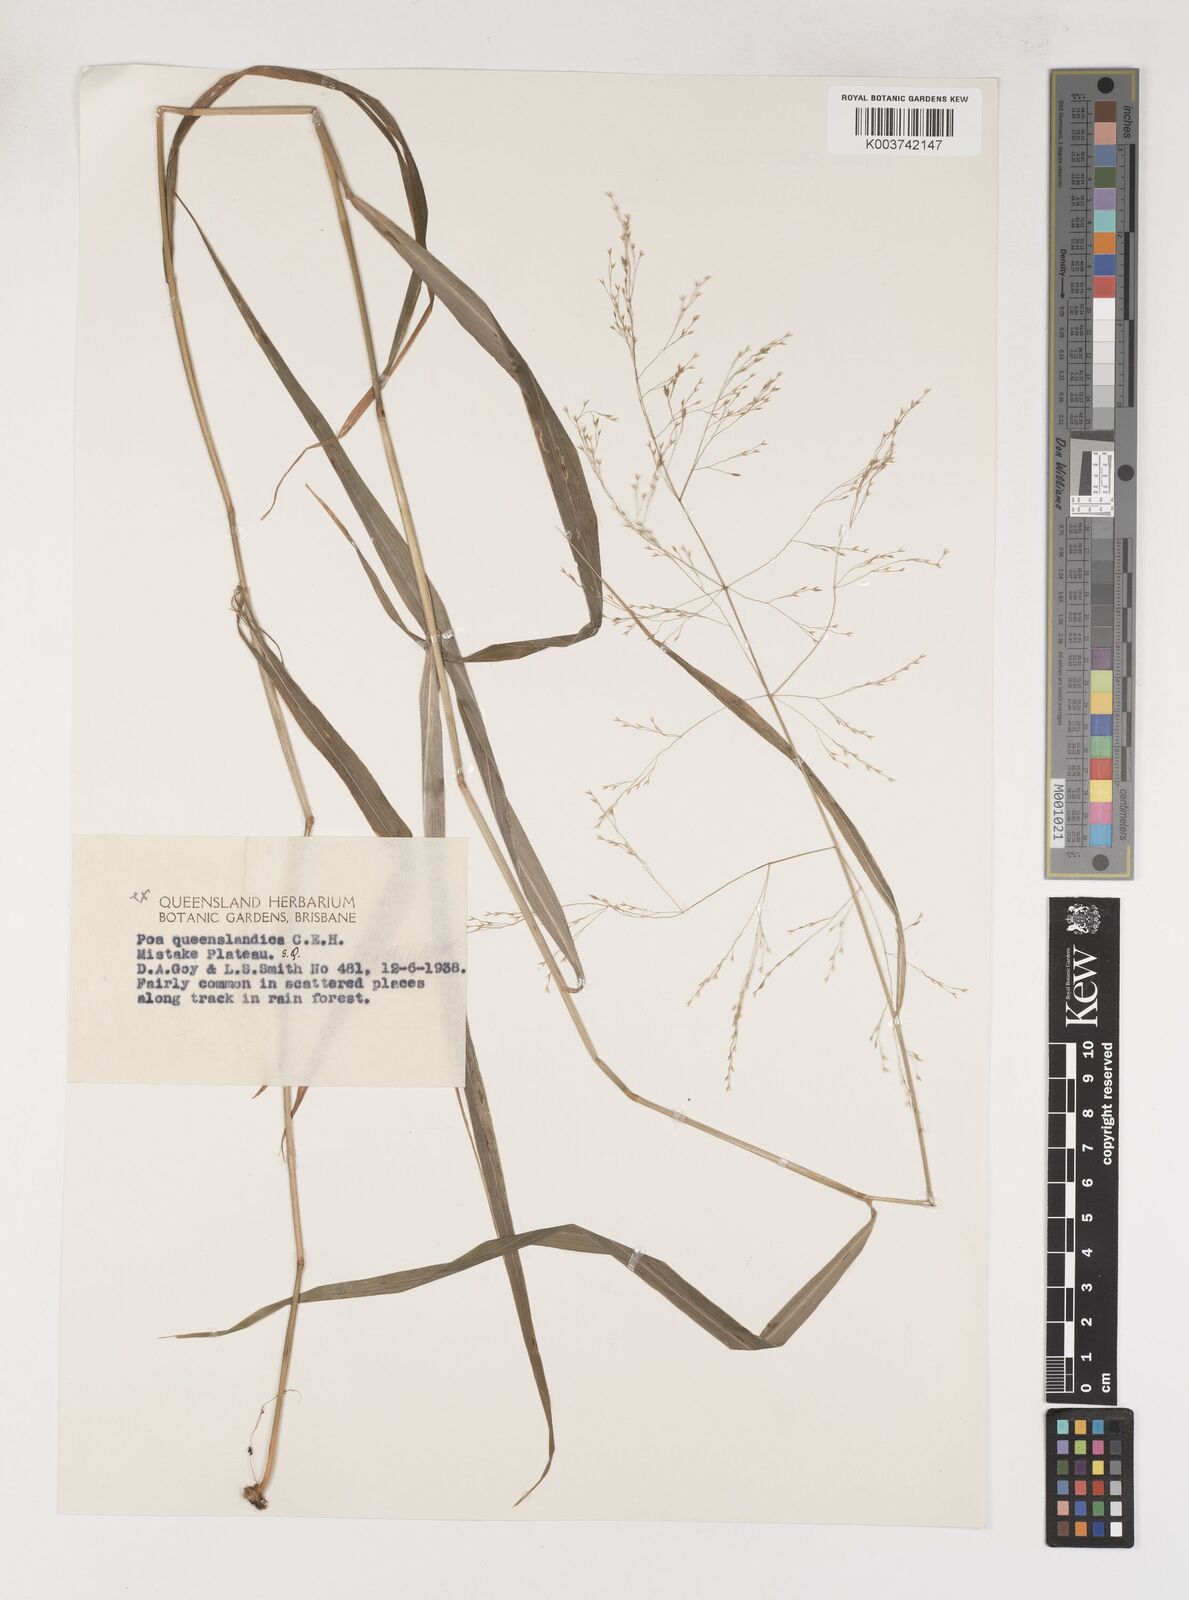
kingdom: Plantae
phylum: Tracheophyta
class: Liliopsida
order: Poales
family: Poaceae
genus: Sylvipoa
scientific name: Sylvipoa queenslandica
